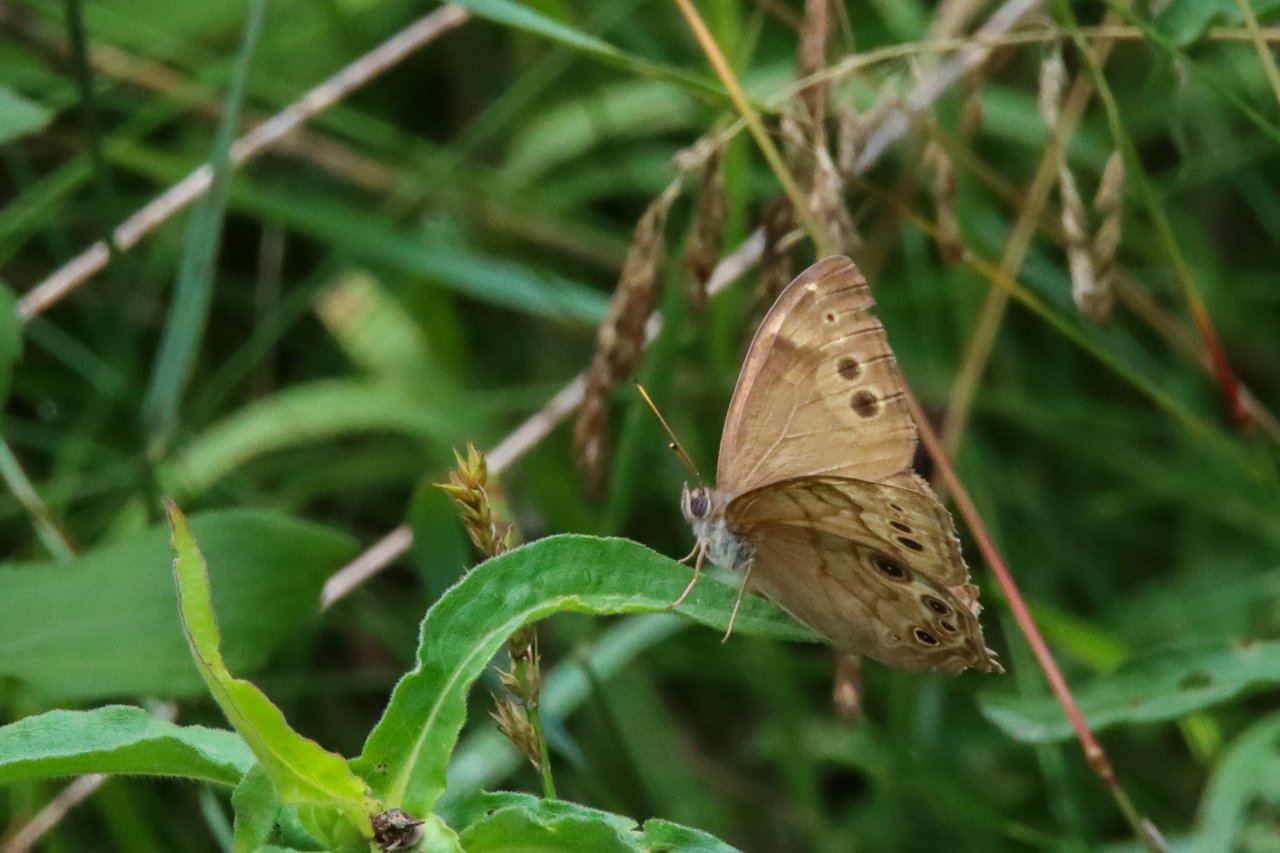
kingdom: Animalia
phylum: Arthropoda
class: Insecta
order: Lepidoptera
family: Nymphalidae
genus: Lethe
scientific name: Lethe anthedon
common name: Northern Pearly-Eye
